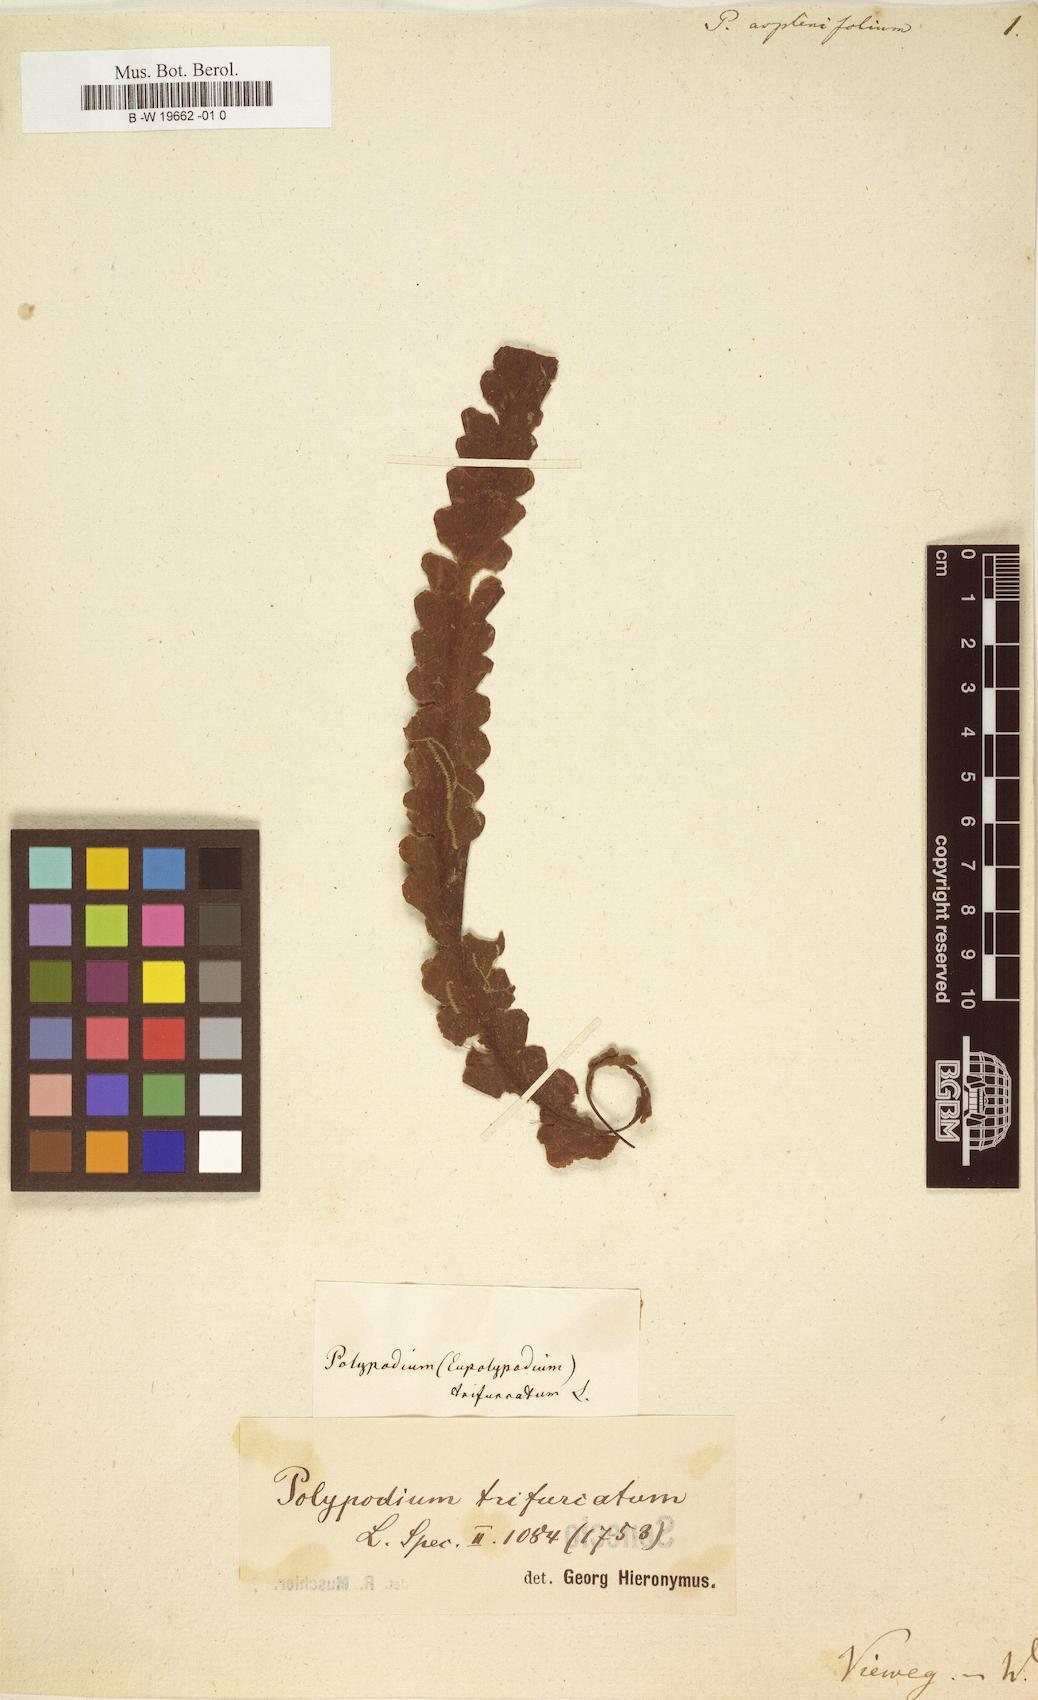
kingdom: Plantae
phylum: Tracheophyta
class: Polypodiopsida
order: Polypodiales
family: Polypodiaceae
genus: Terpsichore
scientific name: Terpsichore asplenifolia
